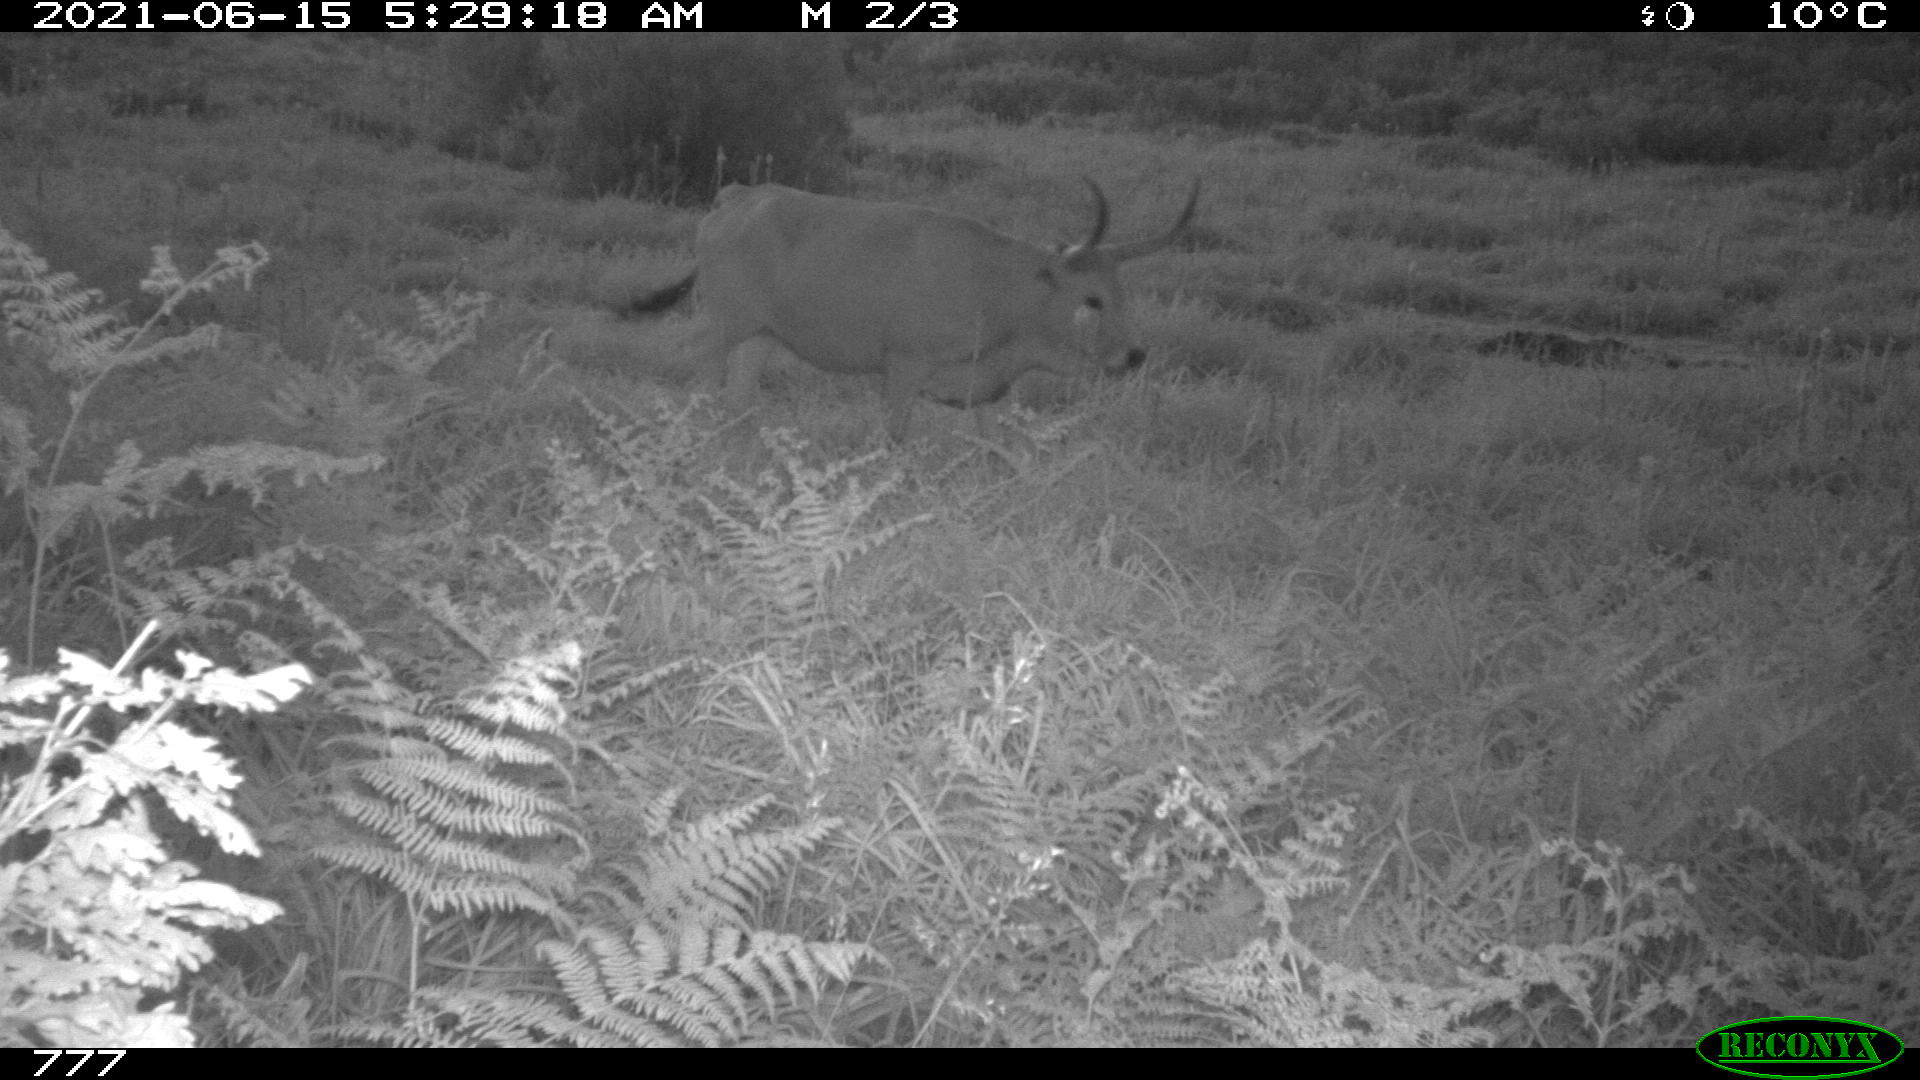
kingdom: Animalia
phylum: Chordata
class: Mammalia
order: Artiodactyla
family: Bovidae
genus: Bos
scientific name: Bos taurus
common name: Domesticated cattle
